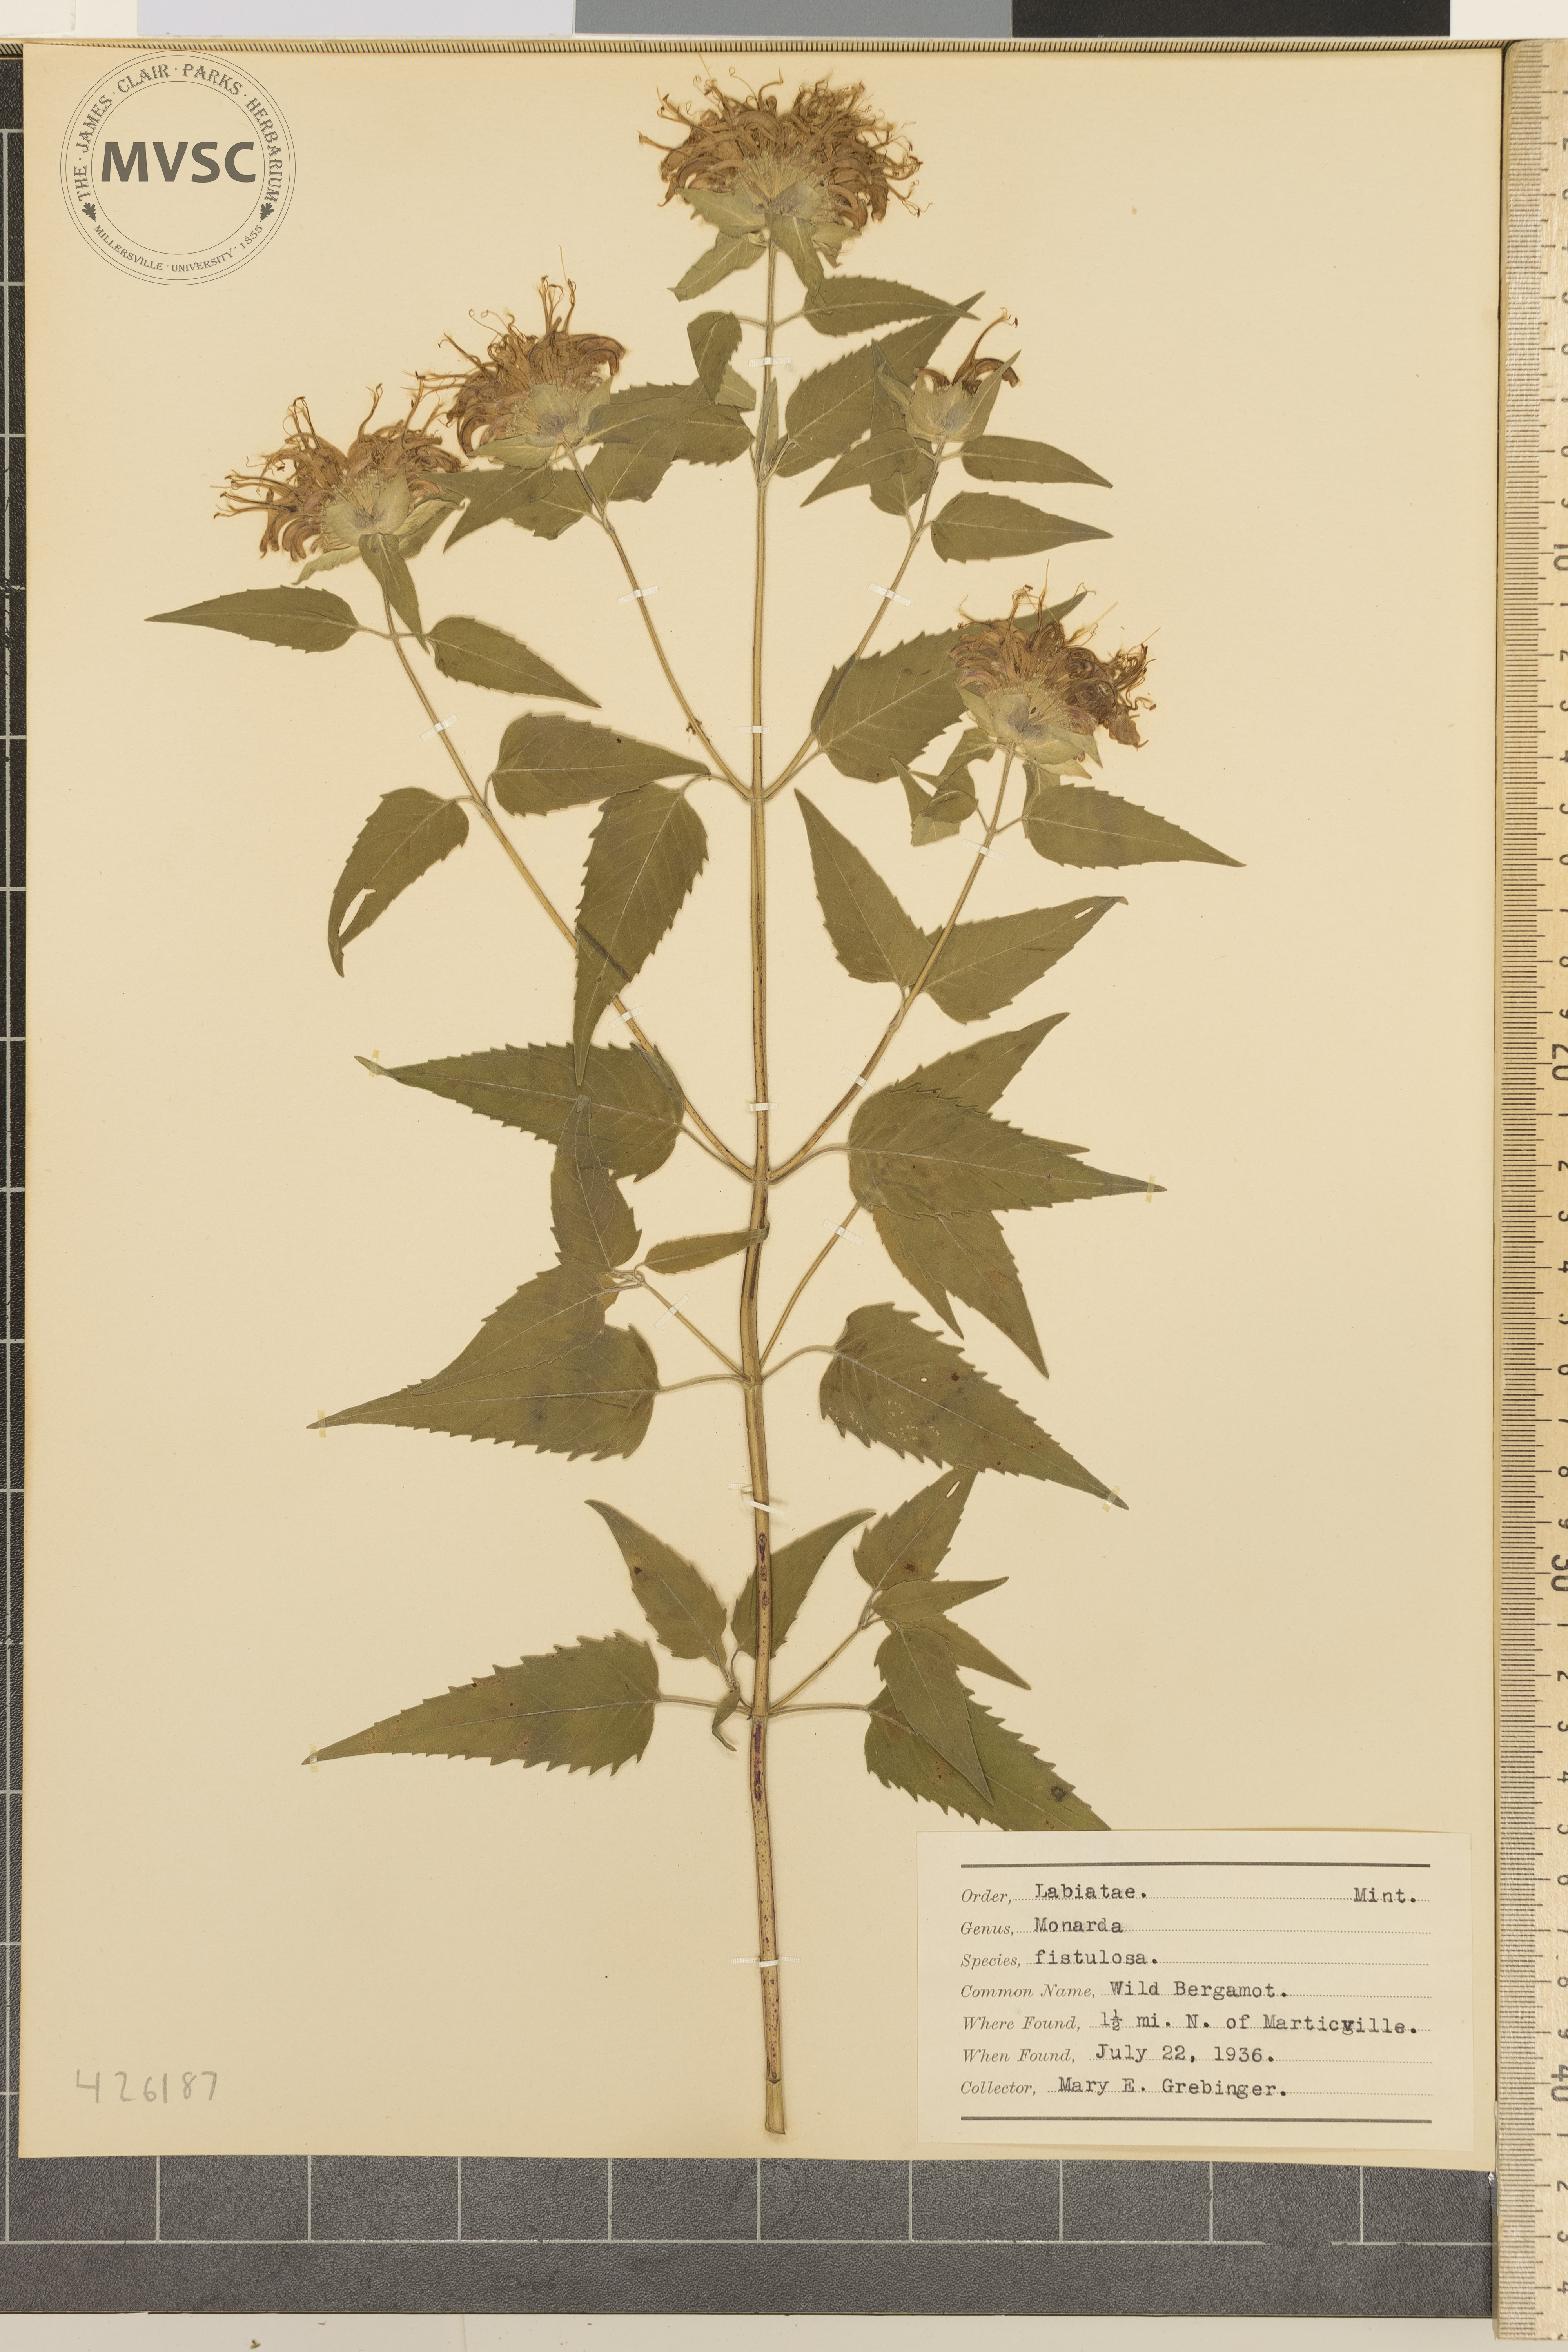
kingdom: Plantae
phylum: Tracheophyta
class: Magnoliopsida
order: Lamiales
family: Lamiaceae
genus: Monarda
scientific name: Monarda fistulosa
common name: Wild bergamot
